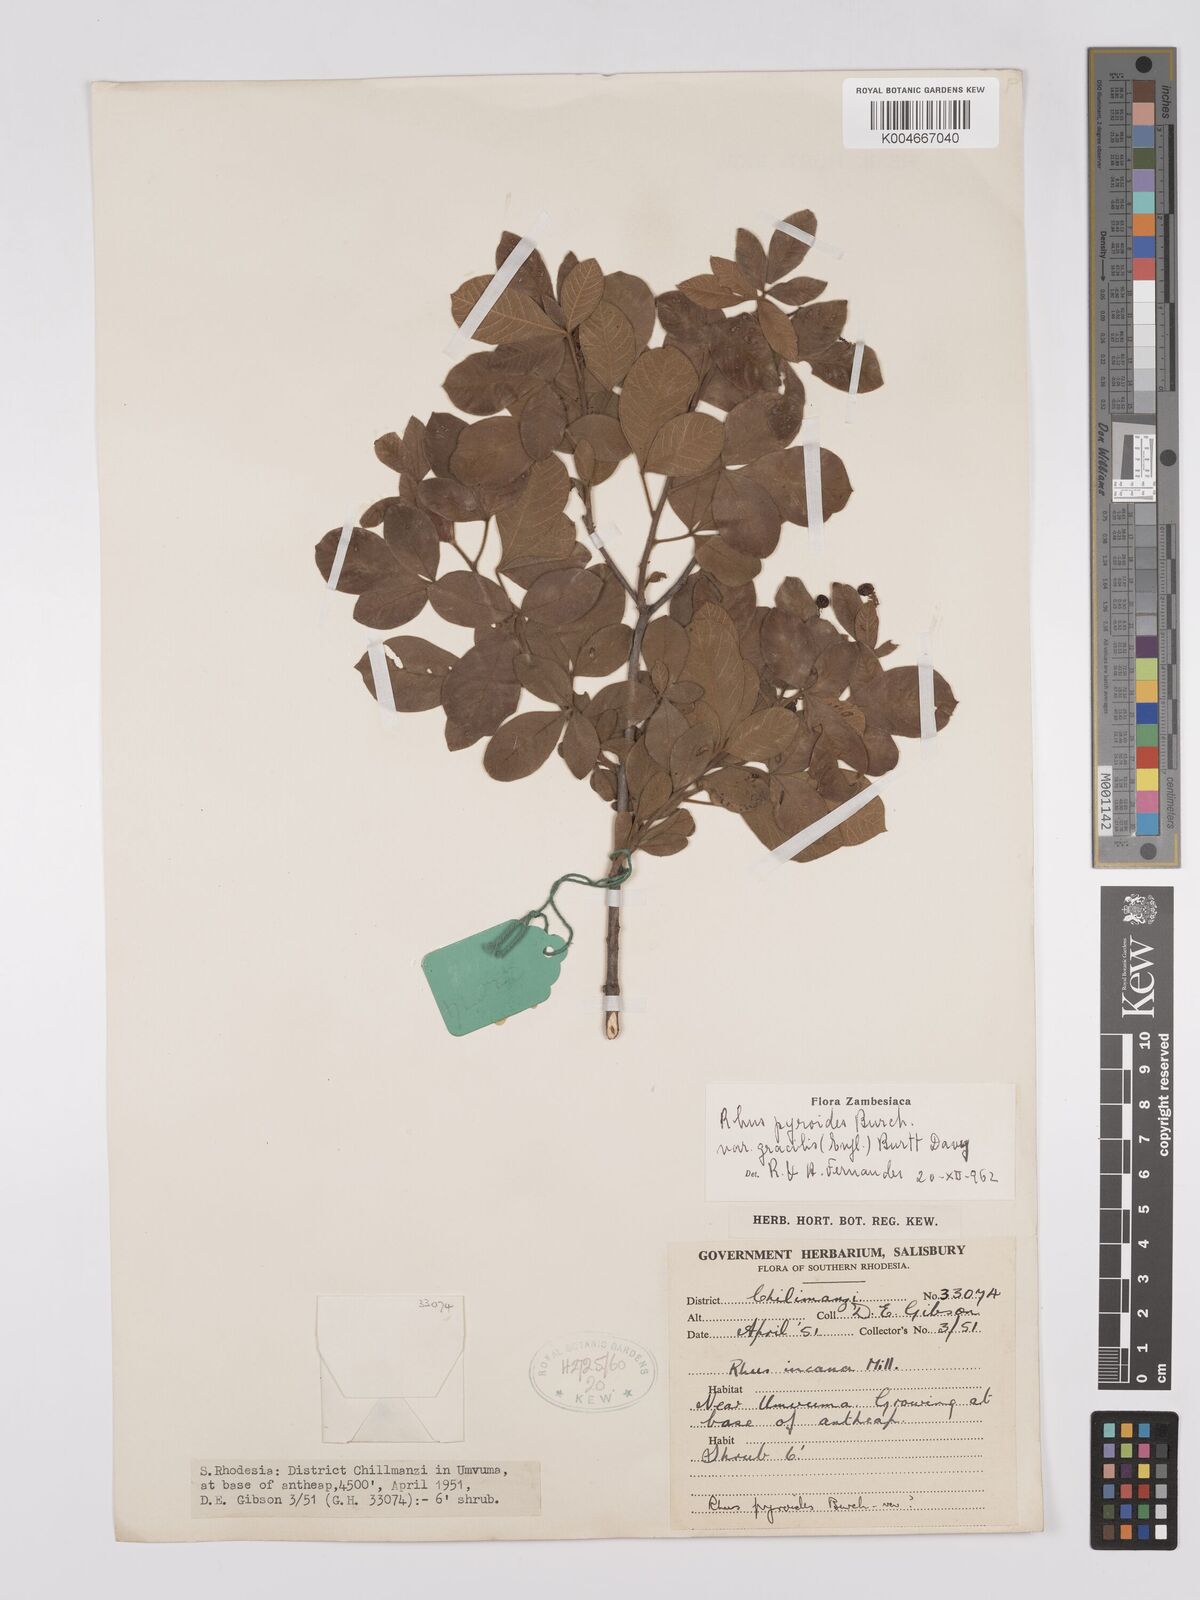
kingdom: Plantae
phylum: Tracheophyta
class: Magnoliopsida
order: Sapindales
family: Anacardiaceae
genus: Rhus
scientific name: Rhus
